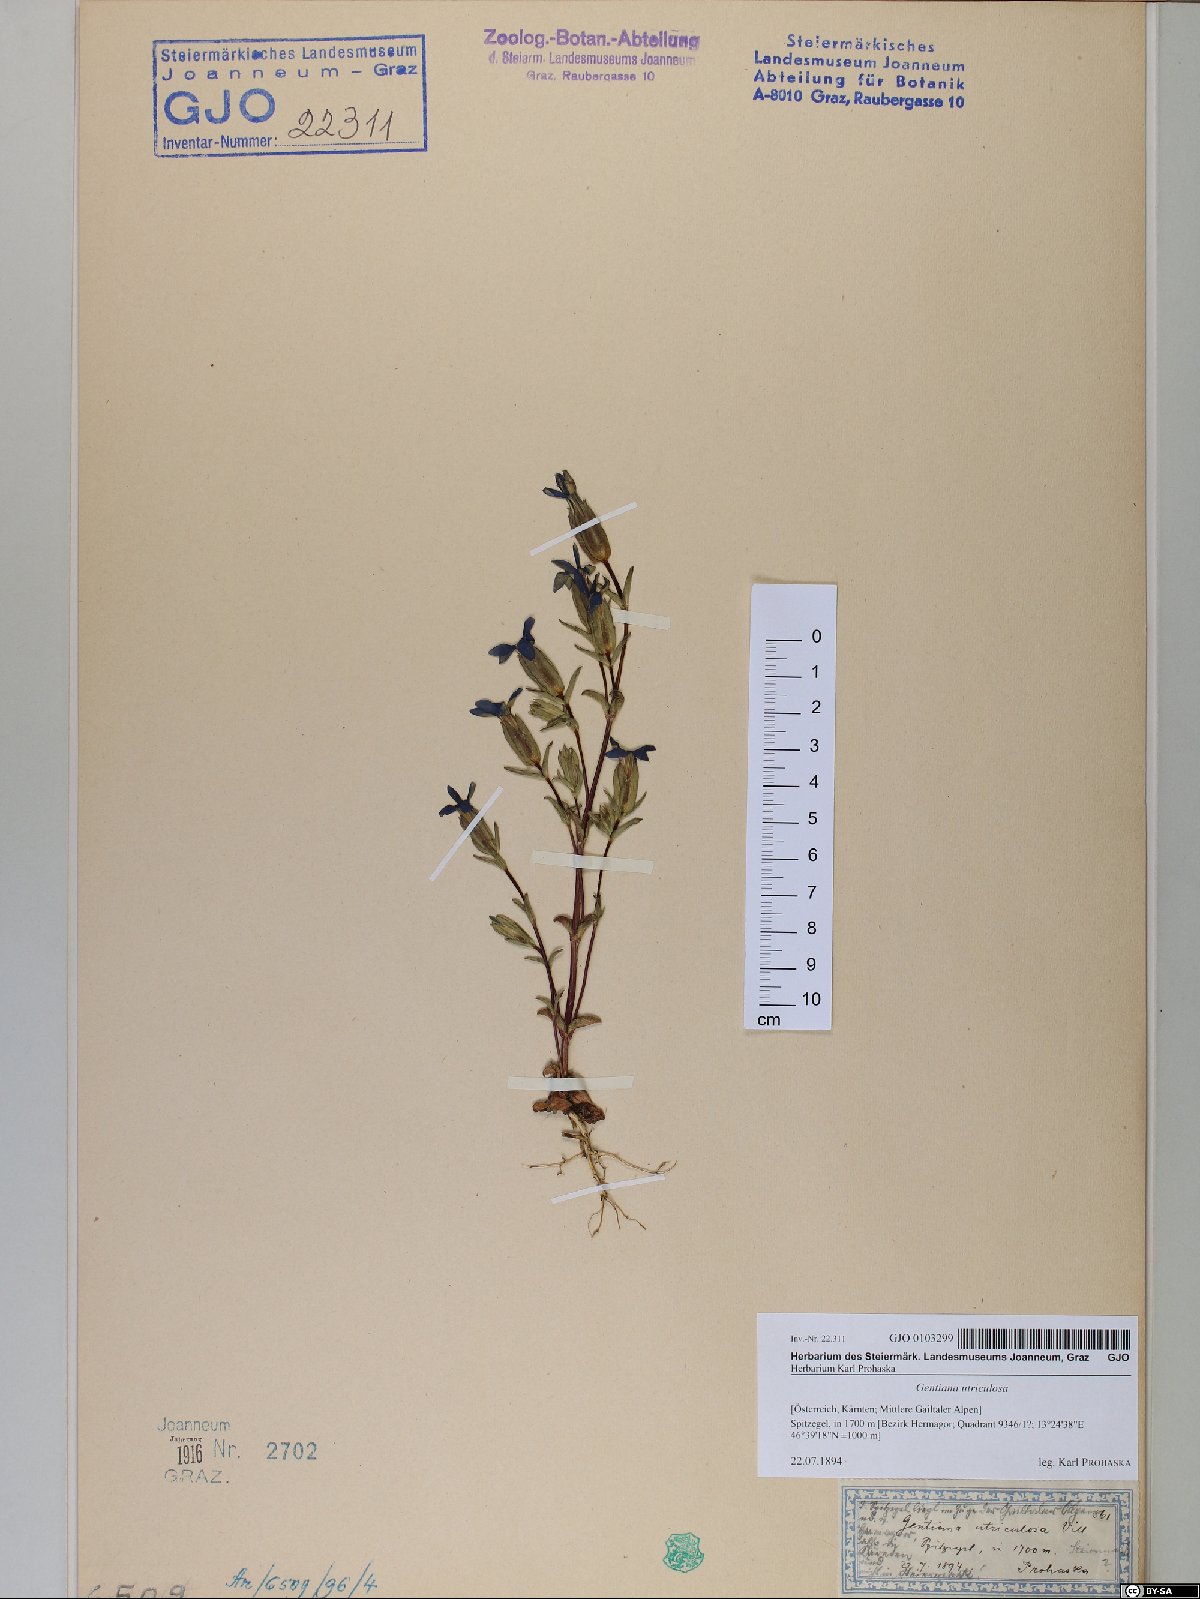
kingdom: Plantae
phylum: Tracheophyta
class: Magnoliopsida
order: Gentianales
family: Gentianaceae
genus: Gentiana
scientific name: Gentiana utriculosa
